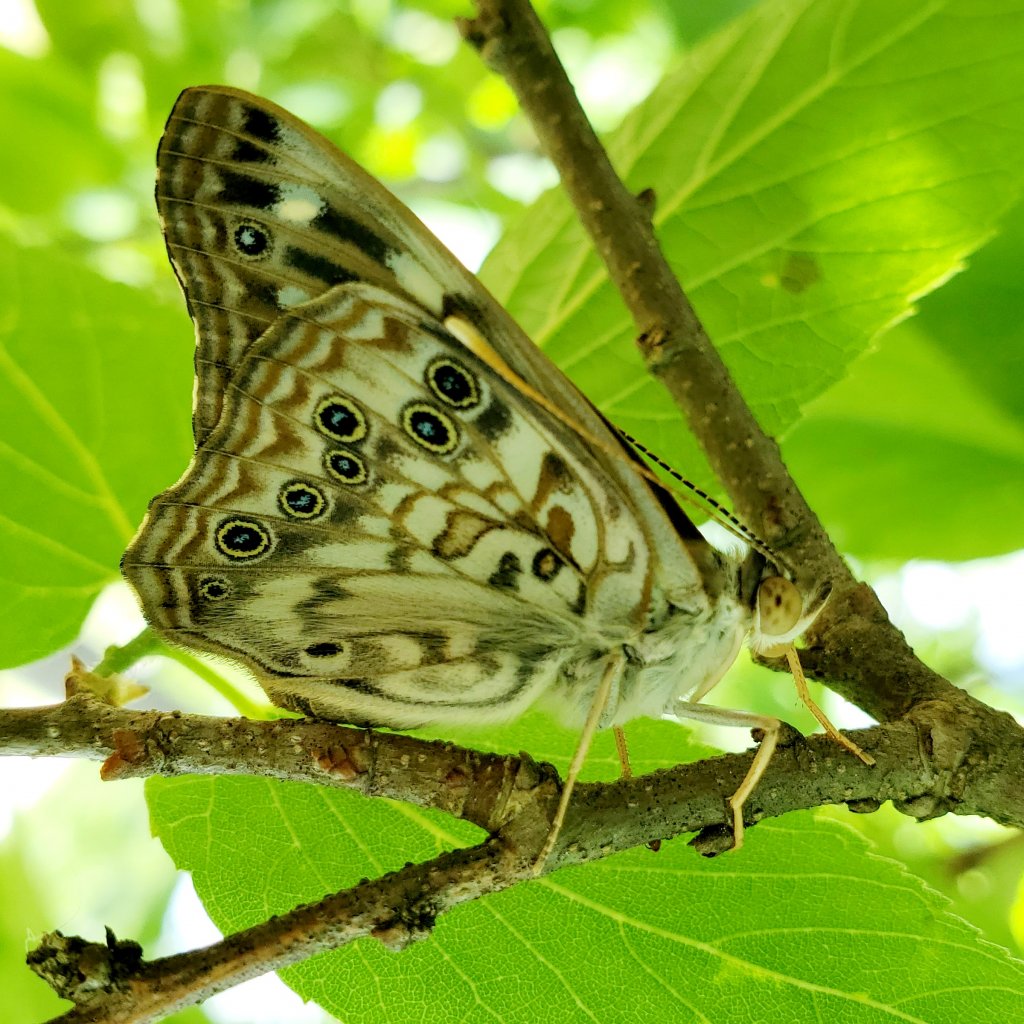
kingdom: Animalia
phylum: Arthropoda
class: Insecta
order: Lepidoptera
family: Nymphalidae
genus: Asterocampa
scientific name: Asterocampa celtis
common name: Hackberry Emperor
